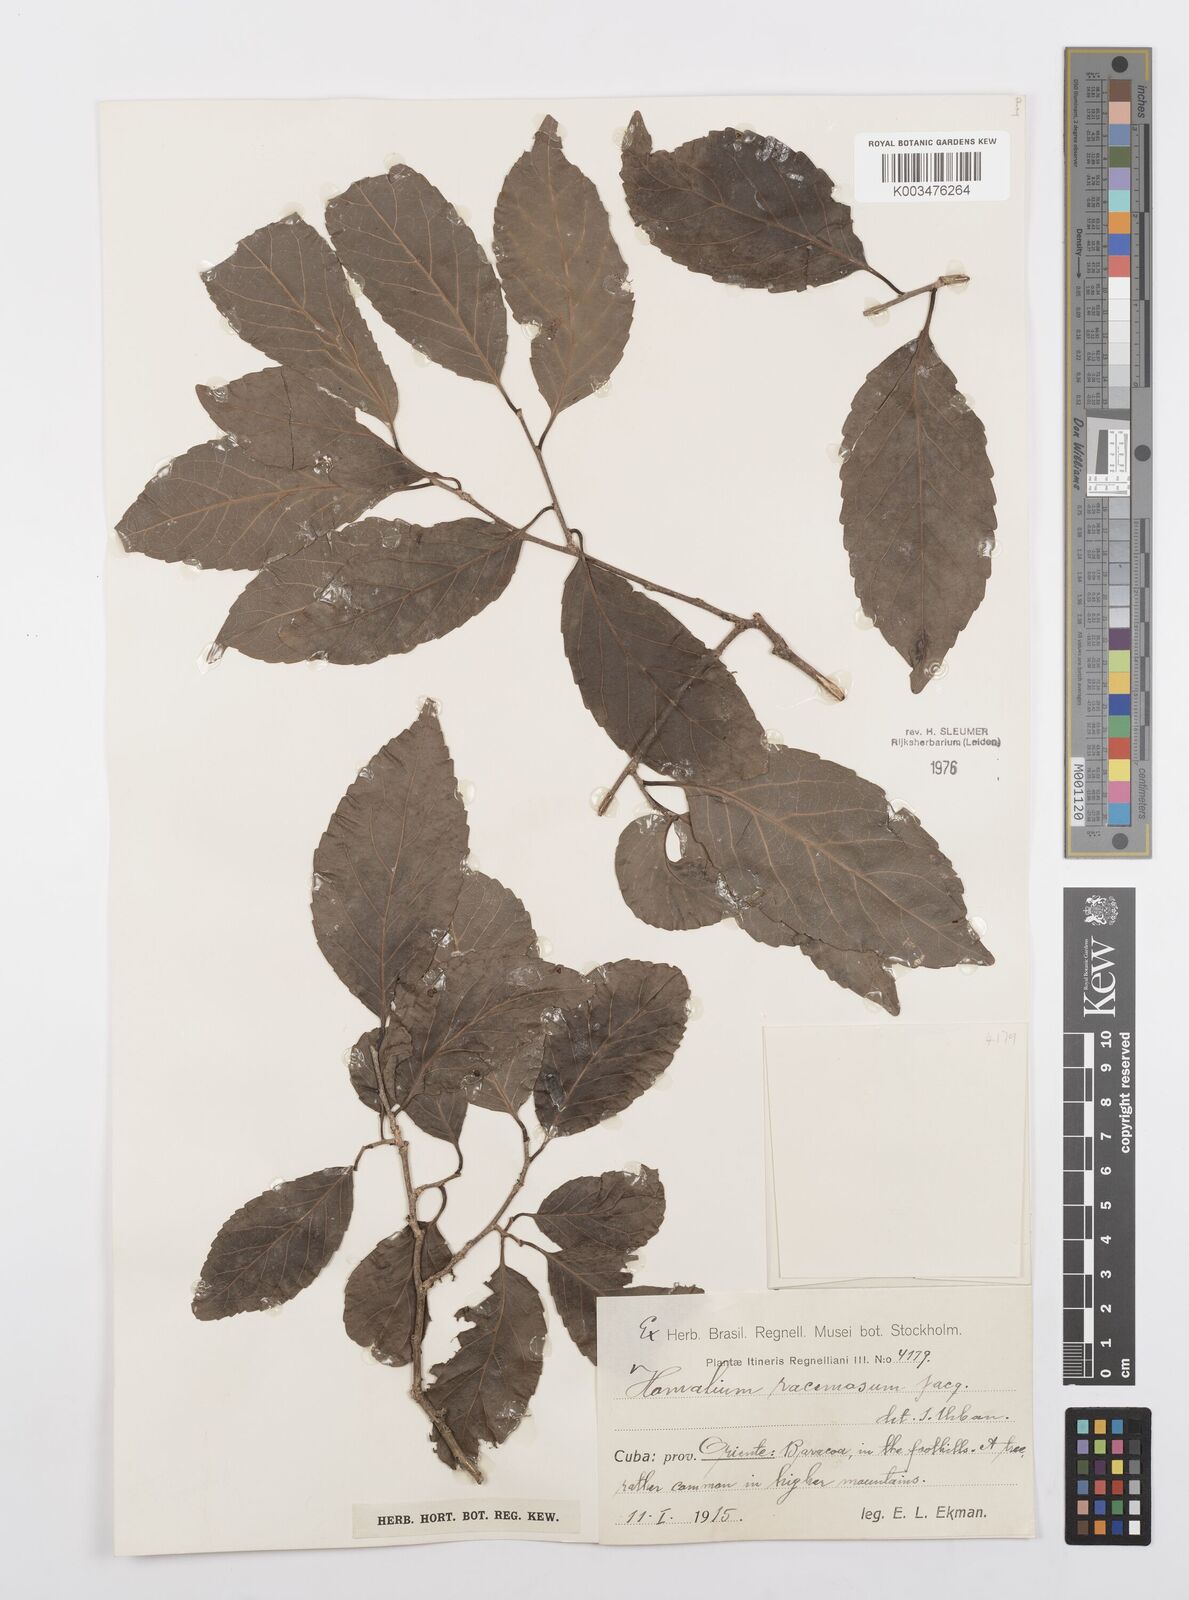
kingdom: Plantae
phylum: Tracheophyta
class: Magnoliopsida
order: Malpighiales
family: Salicaceae
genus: Homalium
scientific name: Homalium racemosum
